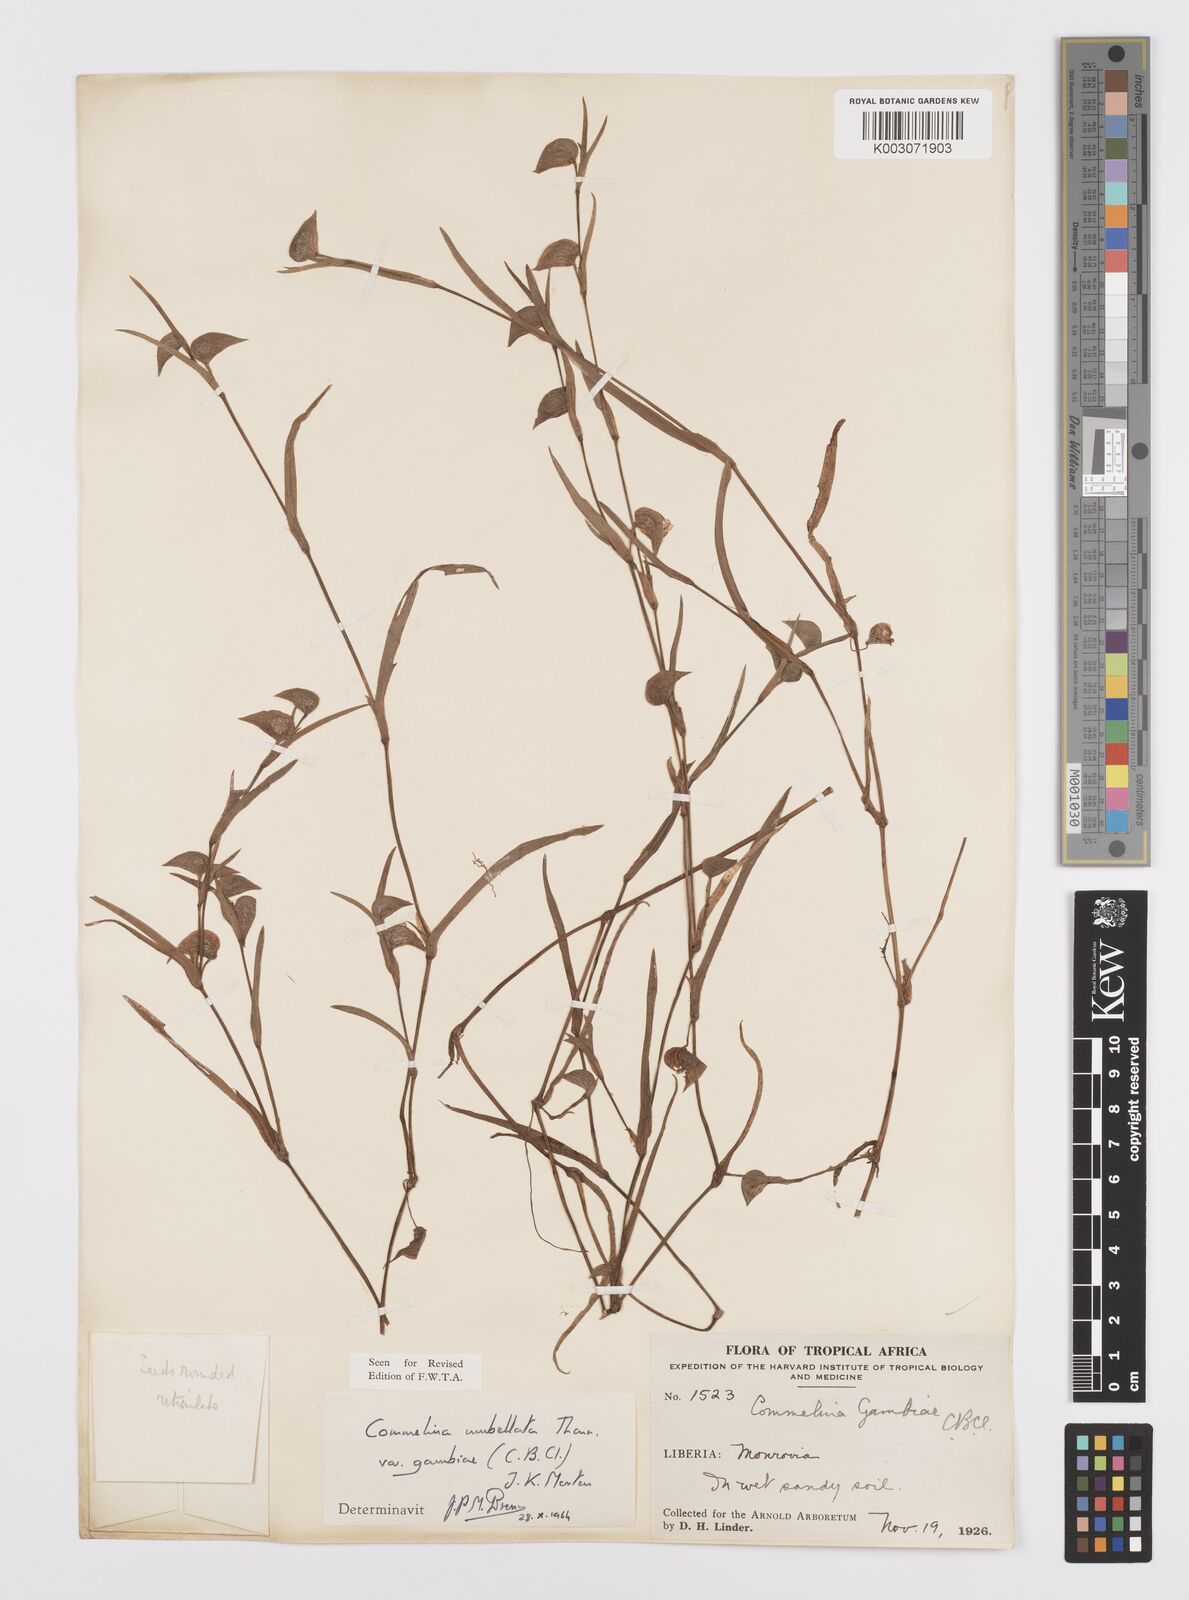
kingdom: Plantae
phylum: Tracheophyta
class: Liliopsida
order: Commelinales
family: Commelinaceae
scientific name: Commelinaceae
